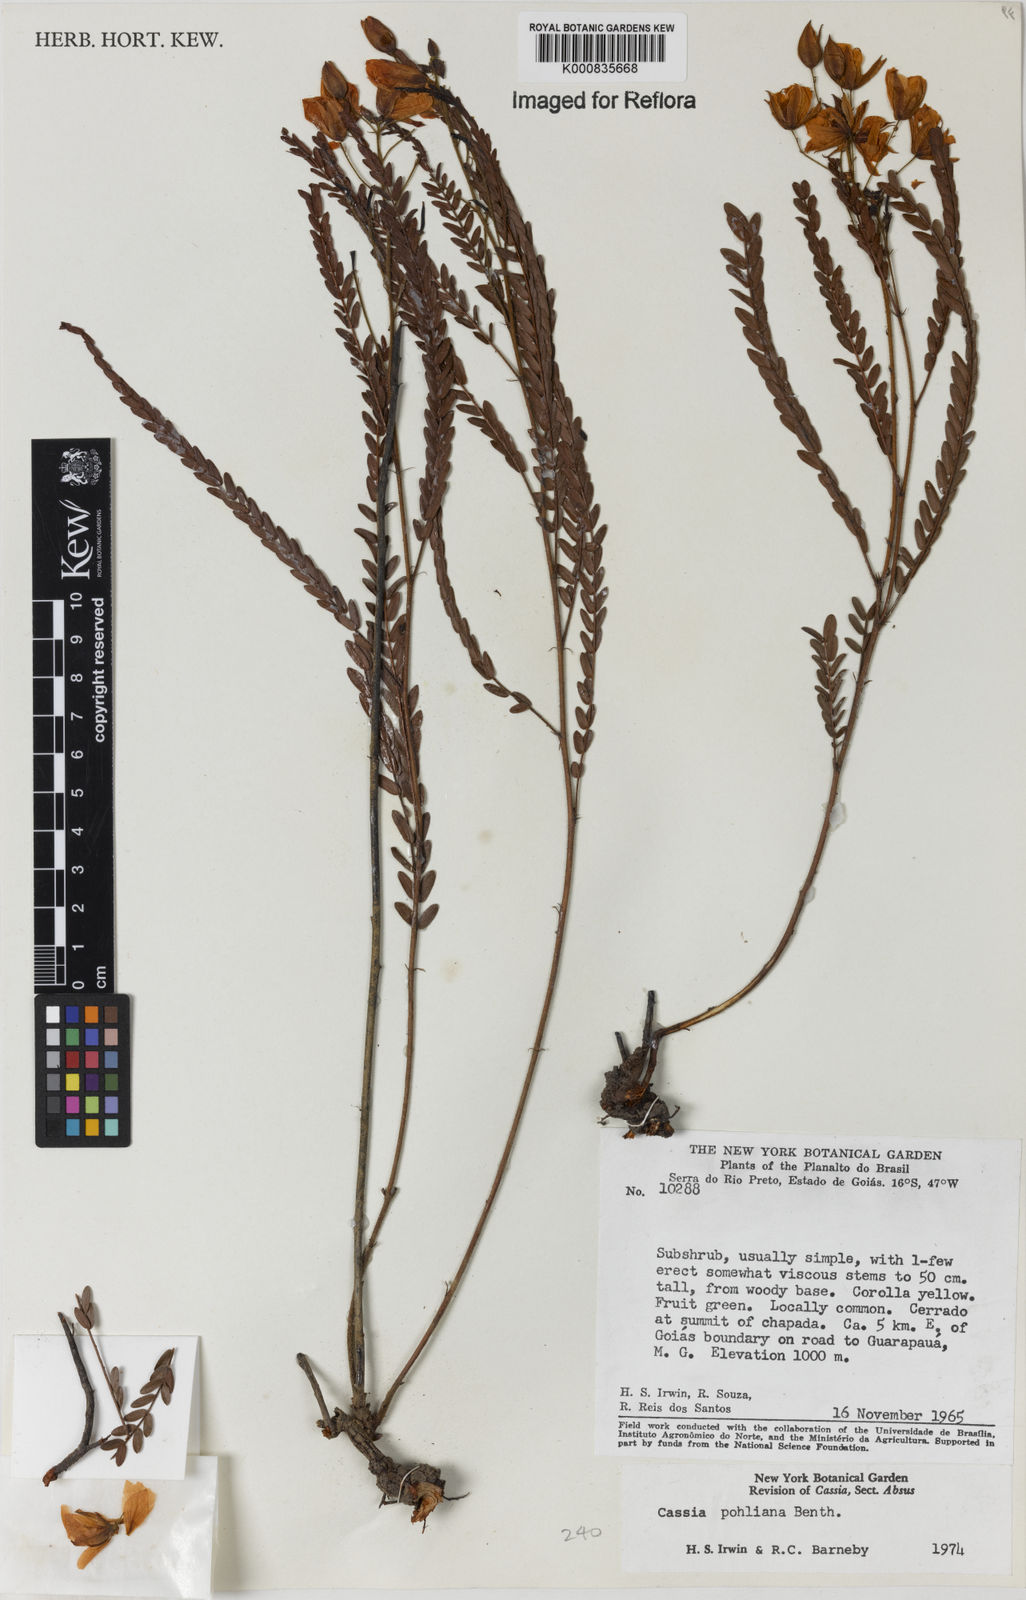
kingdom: Plantae
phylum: Tracheophyta
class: Magnoliopsida
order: Fabales
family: Fabaceae
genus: Chamaecrista
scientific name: Chamaecrista pohliana
